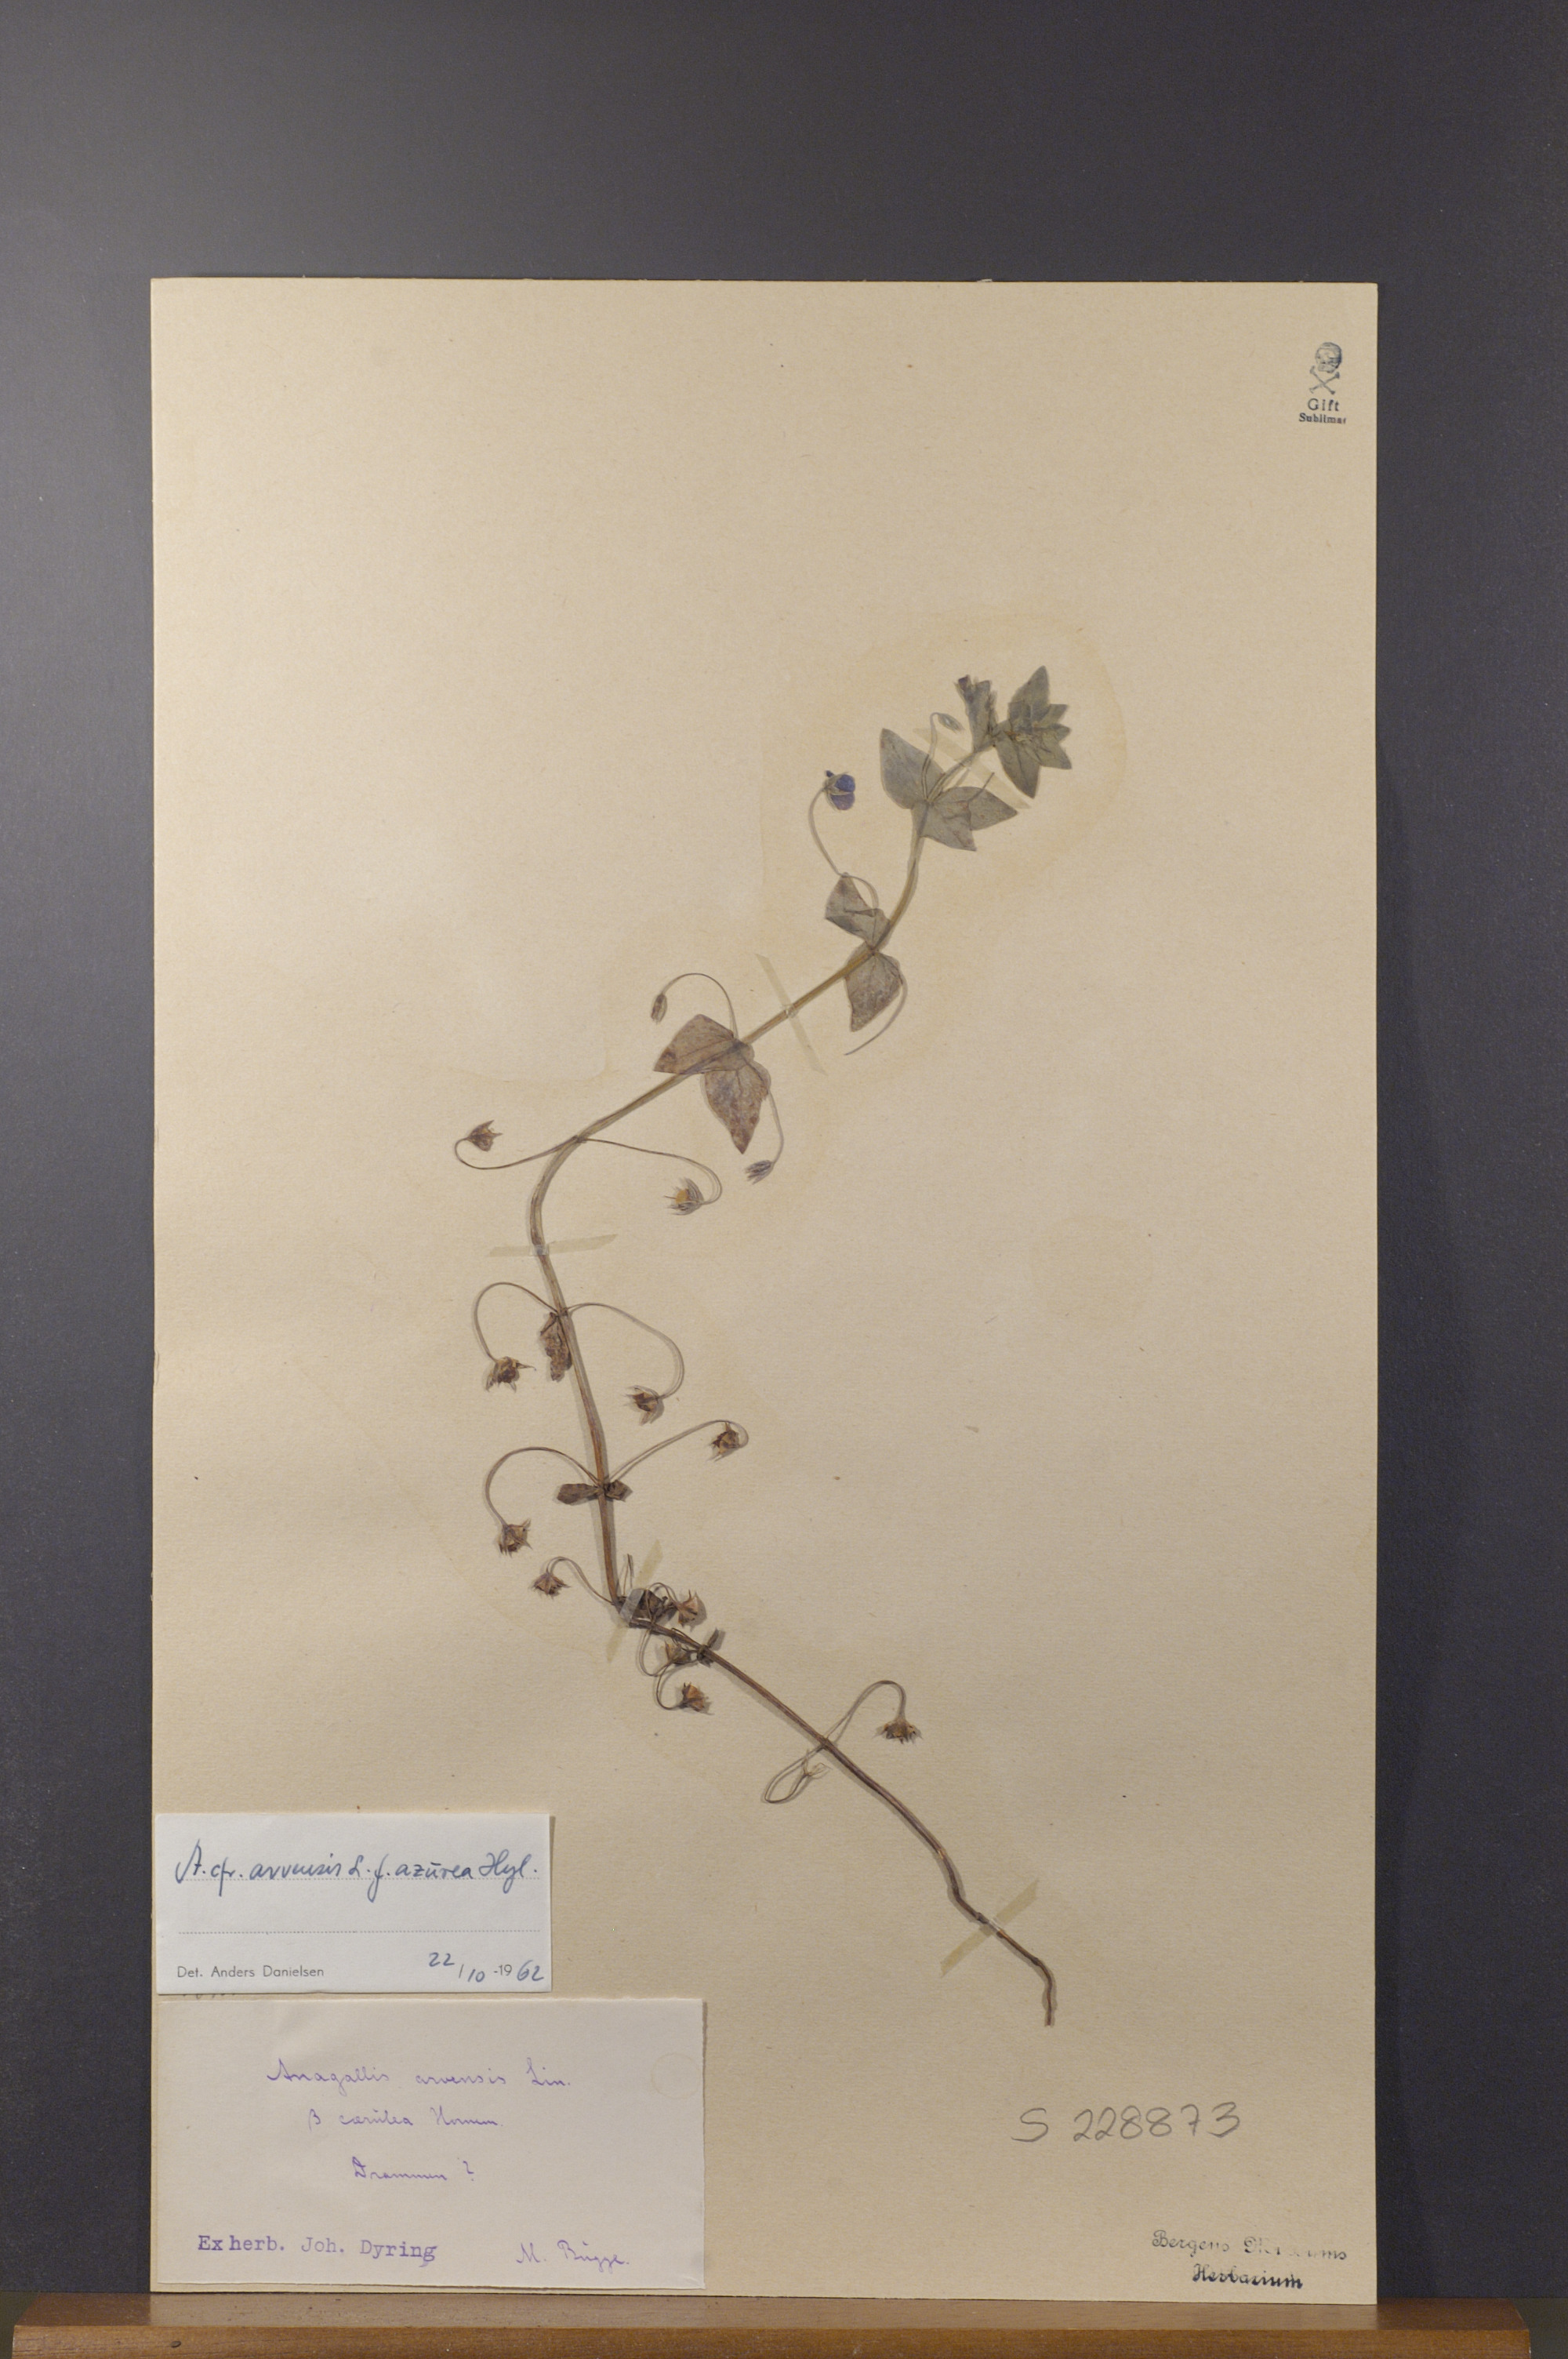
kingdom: Plantae
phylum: Tracheophyta
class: Magnoliopsida
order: Ericales
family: Primulaceae
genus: Lysimachia
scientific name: Lysimachia loeflingii
